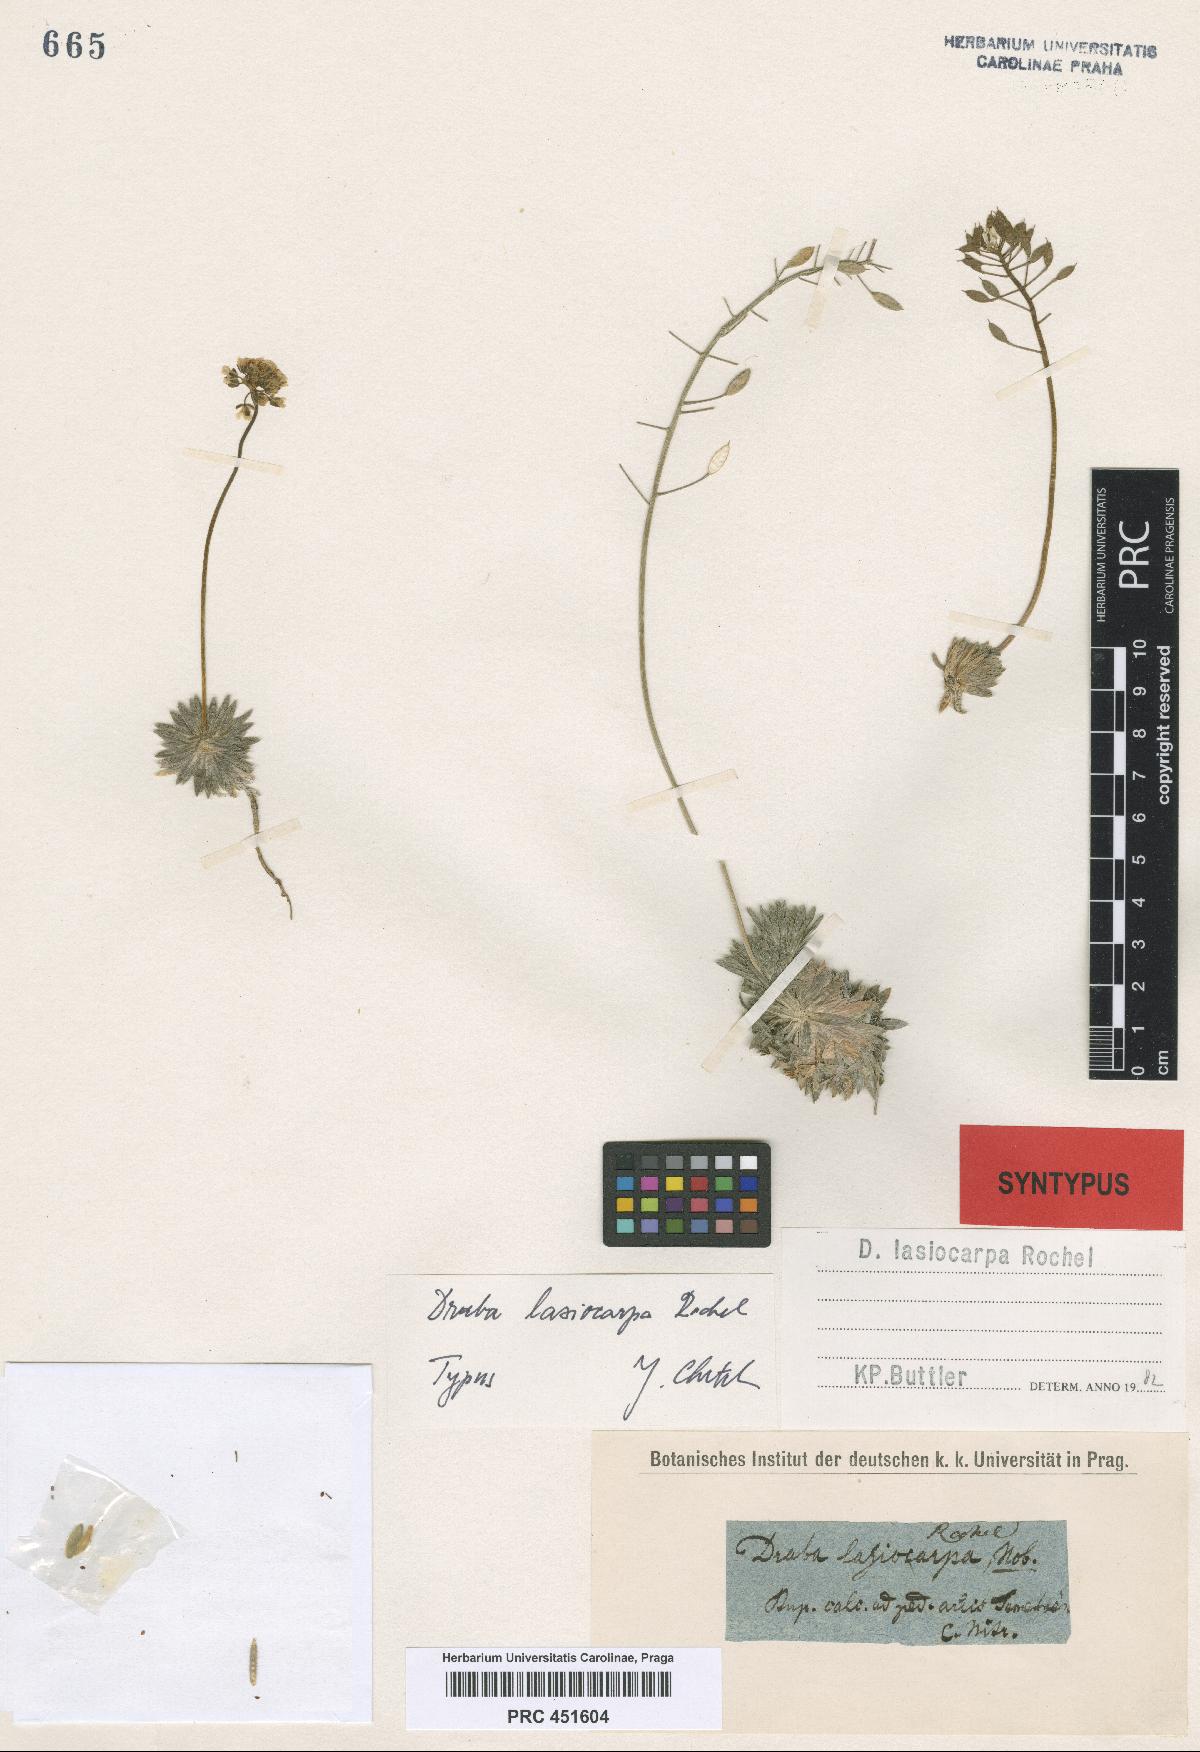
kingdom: Plantae
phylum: Tracheophyta
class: Magnoliopsida
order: Brassicales
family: Brassicaceae
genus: Draba
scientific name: Draba lasiocarpa
